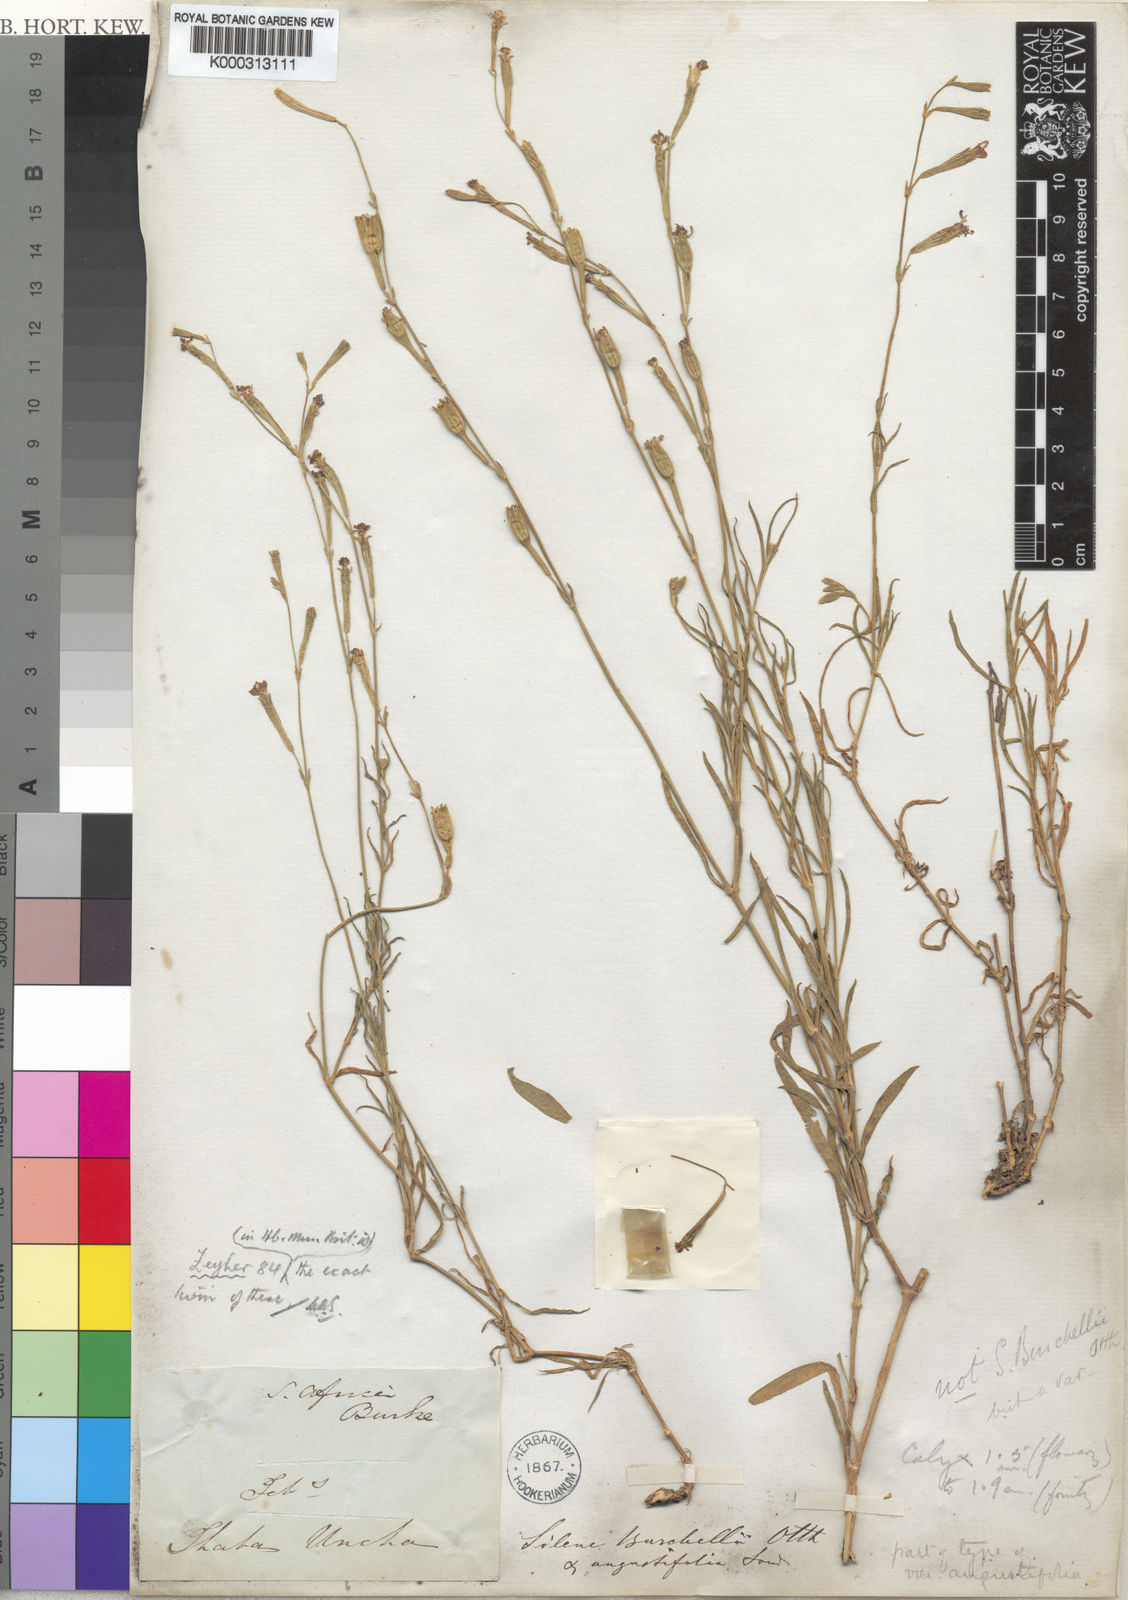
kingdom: Plantae
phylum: Tracheophyta
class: Magnoliopsida
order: Caryophyllales
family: Caryophyllaceae
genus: Silene
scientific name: Silene burchellii
